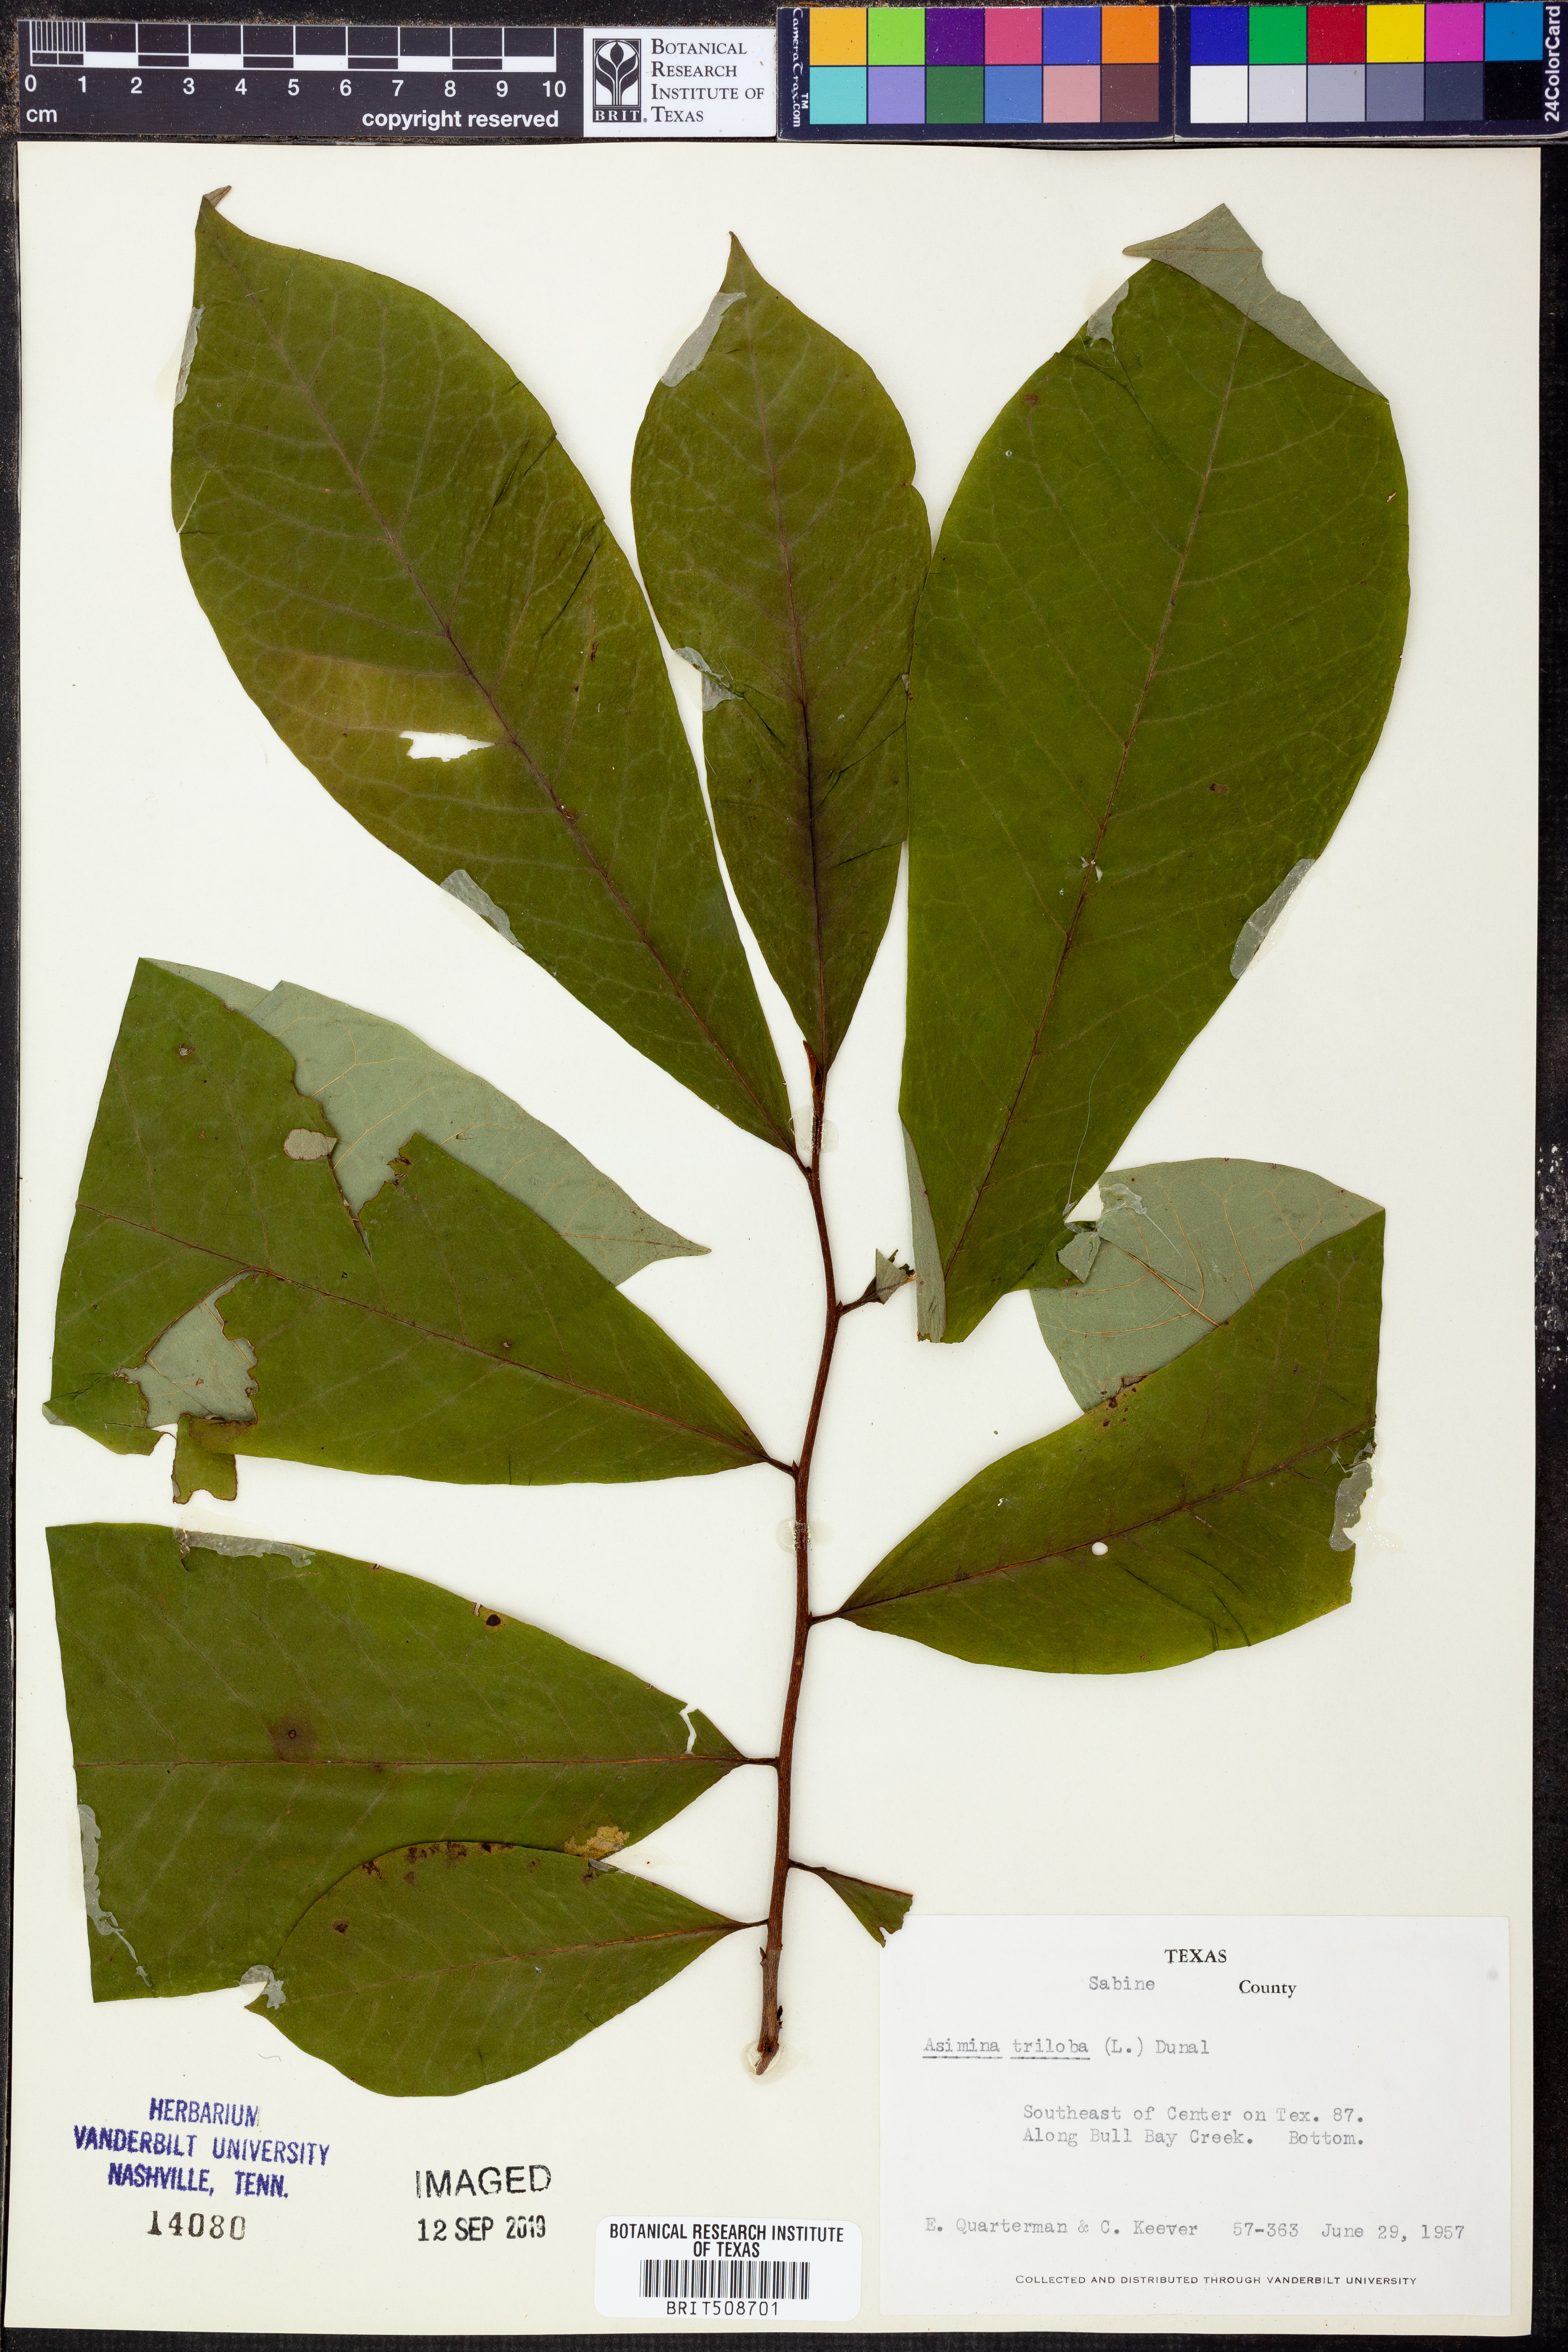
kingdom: Plantae
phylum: Tracheophyta
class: Magnoliopsida
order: Magnoliales
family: Annonaceae
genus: Asimina
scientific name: Asimina triloba
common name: Dog-banana
